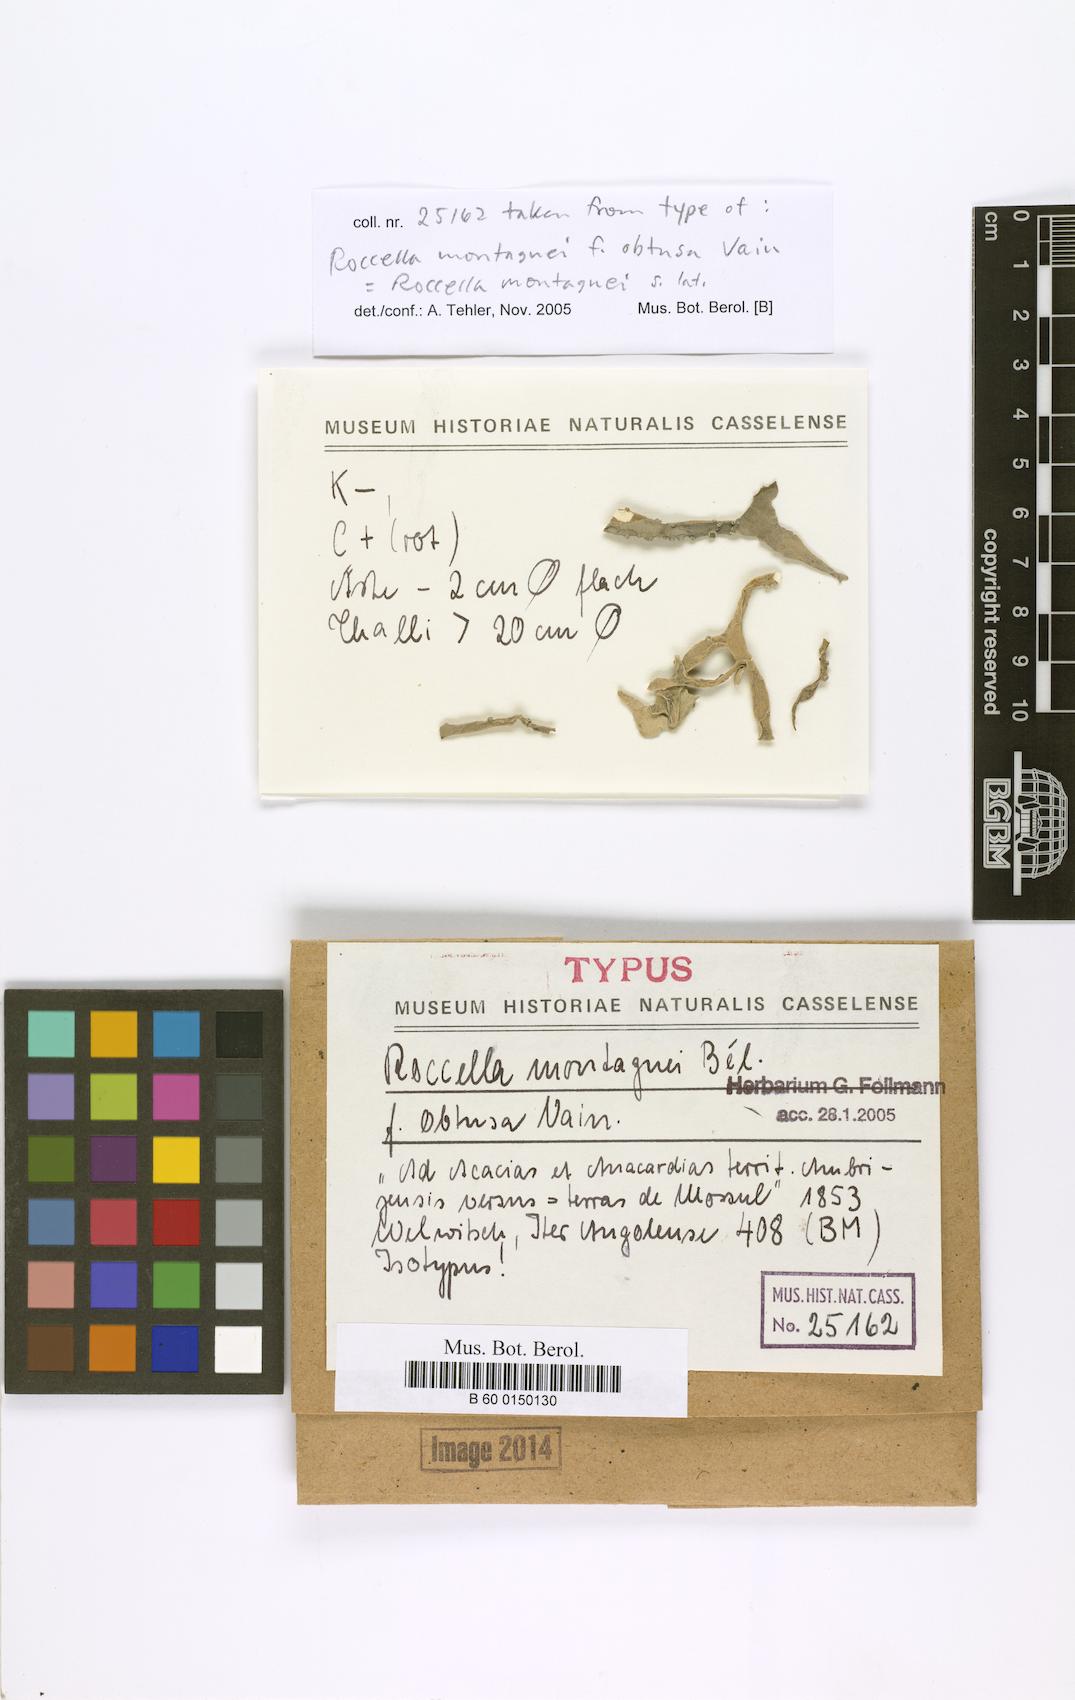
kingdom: Fungi
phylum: Ascomycota
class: Arthoniomycetes
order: Arthoniales
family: Roccellaceae
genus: Roccella
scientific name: Roccella montagnei
